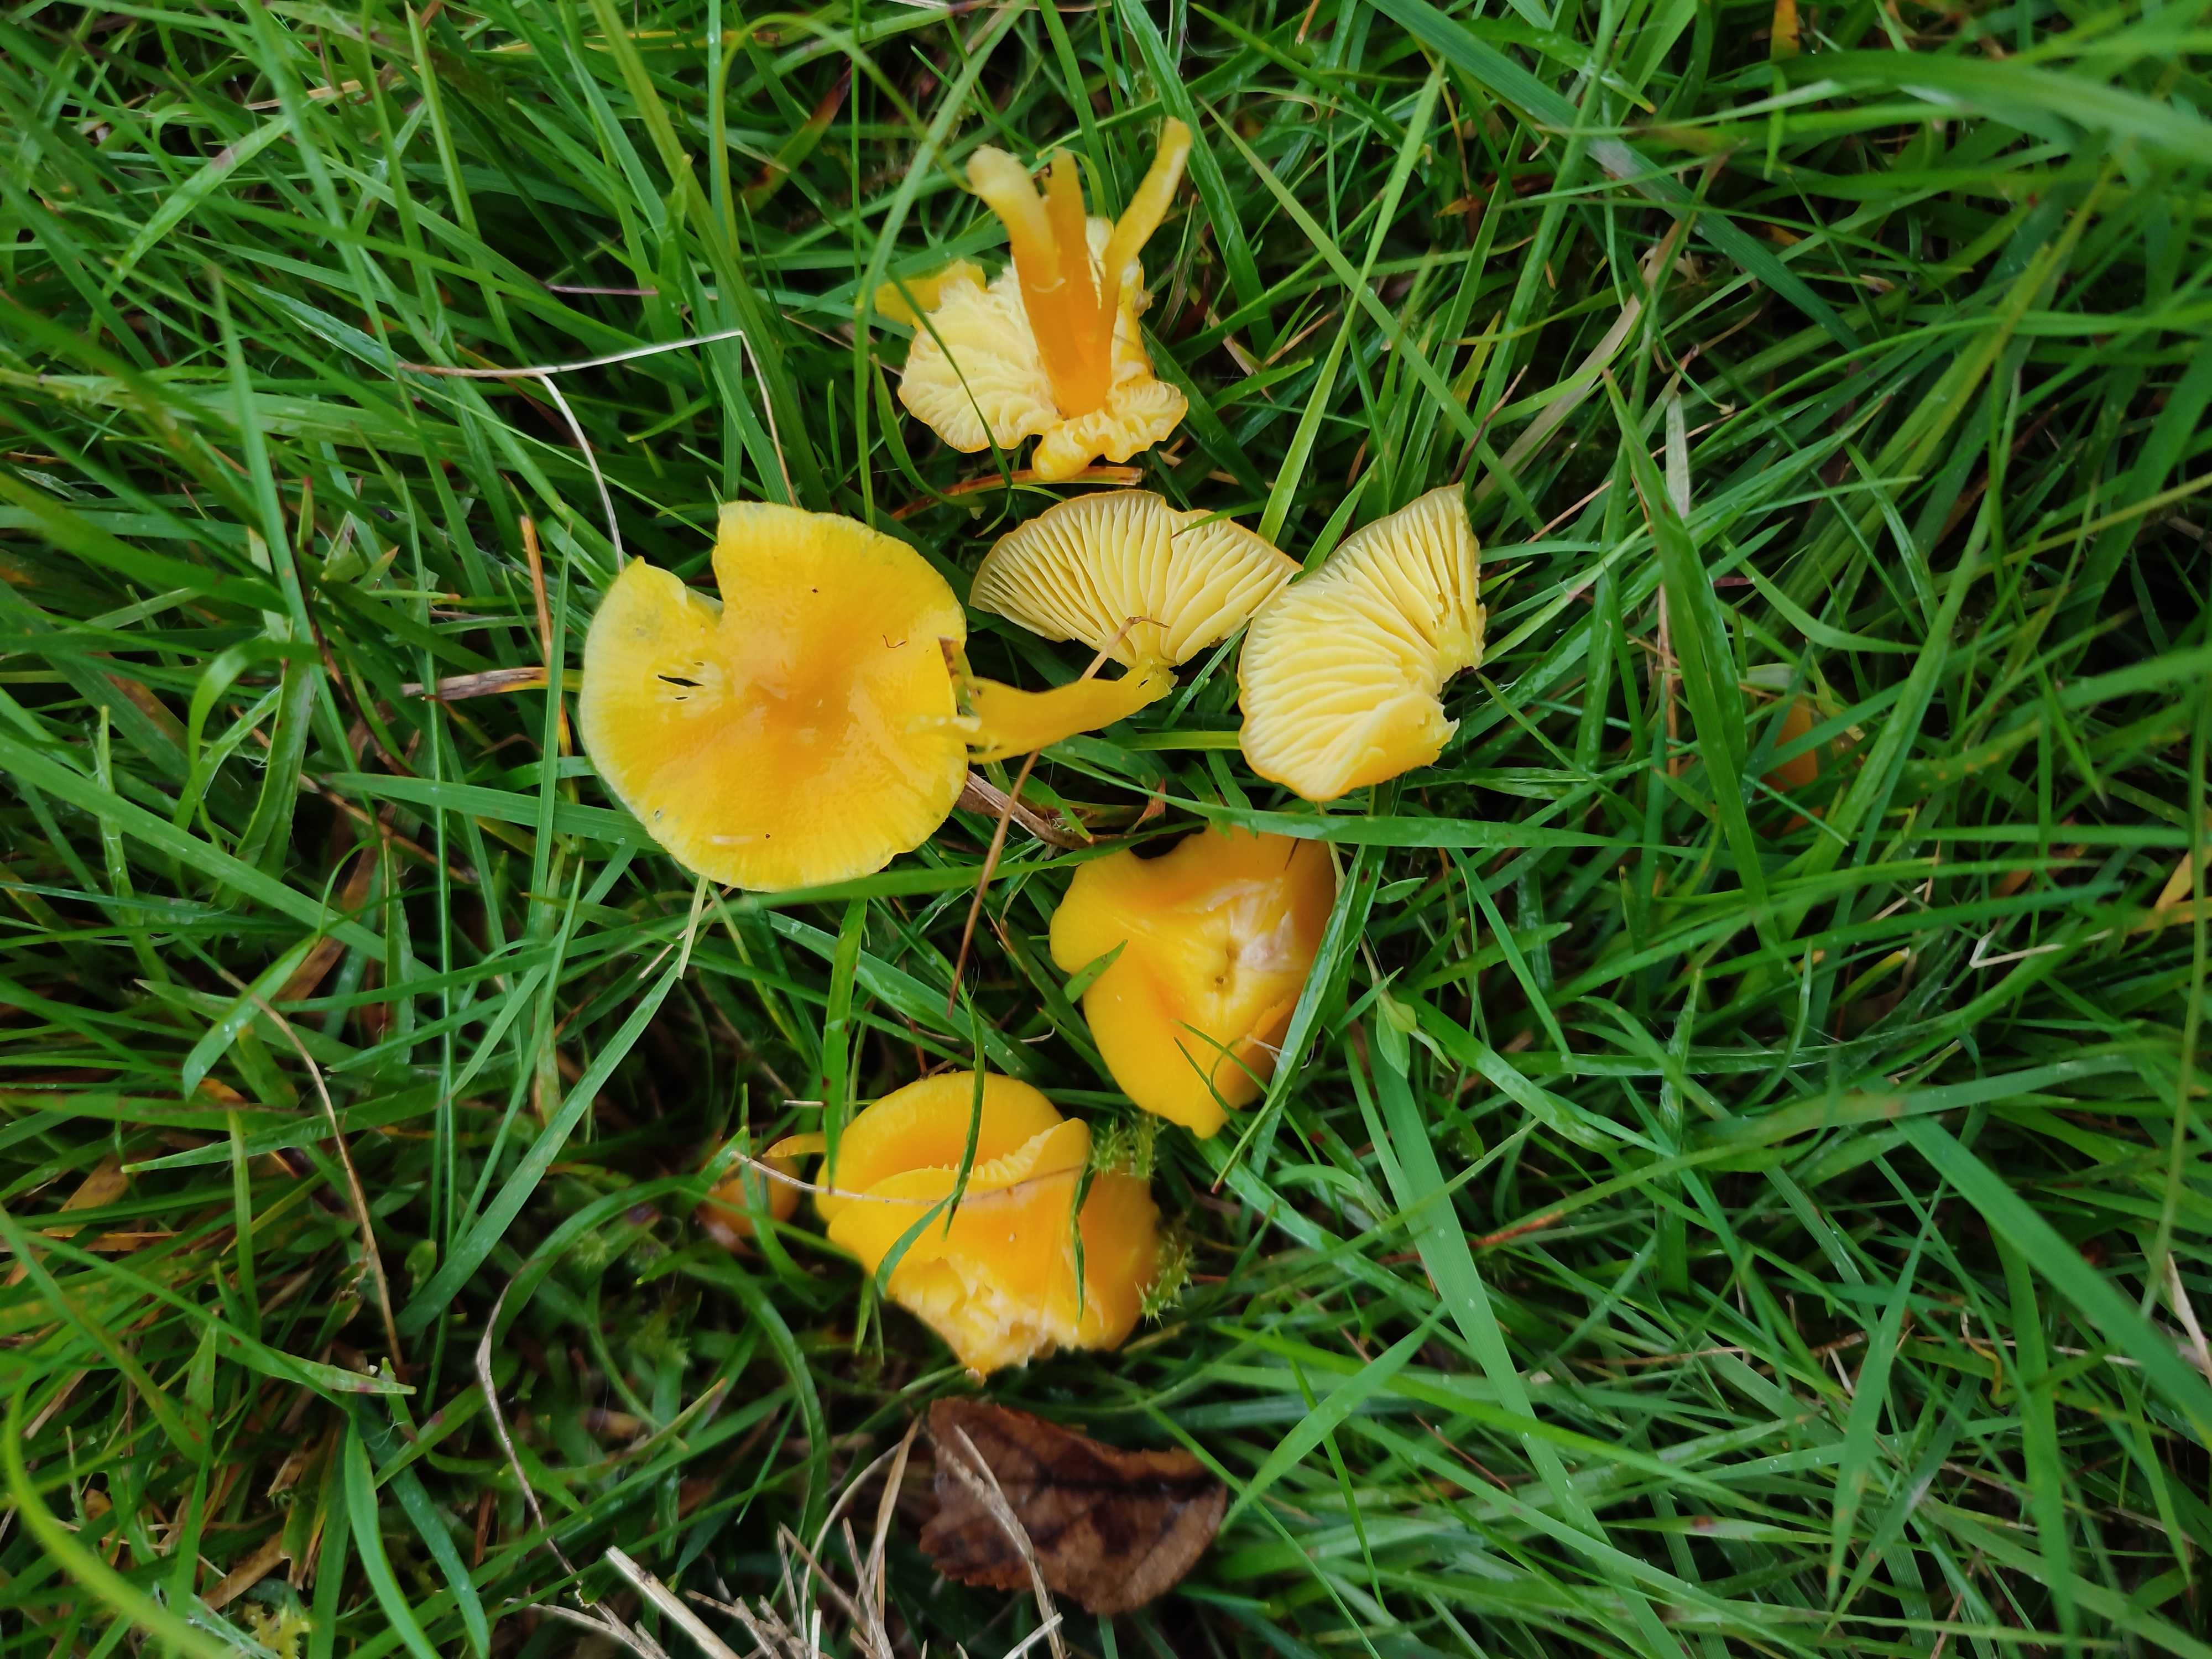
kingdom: Fungi
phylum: Basidiomycota
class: Agaricomycetes
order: Agaricales
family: Hygrophoraceae
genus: Hygrocybe
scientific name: Hygrocybe chlorophana
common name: gul vokshat
